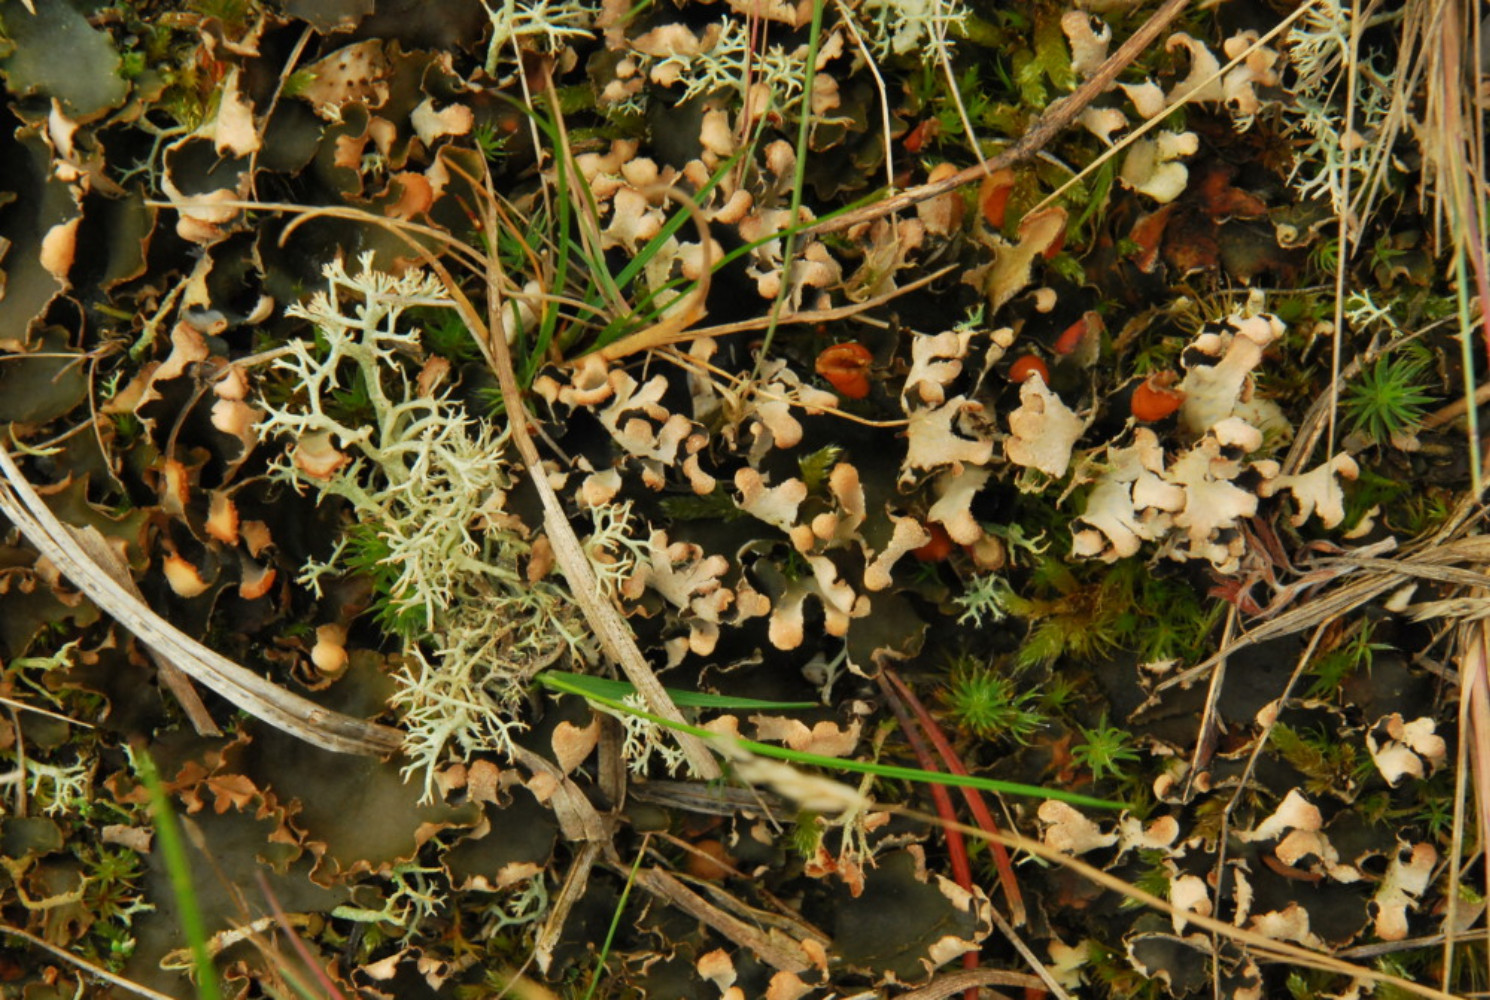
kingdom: Fungi
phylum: Ascomycota
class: Lecanoromycetes
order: Peltigerales
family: Peltigeraceae
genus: Peltigera
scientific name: Peltigera hymenina
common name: hinde-skjoldlav
